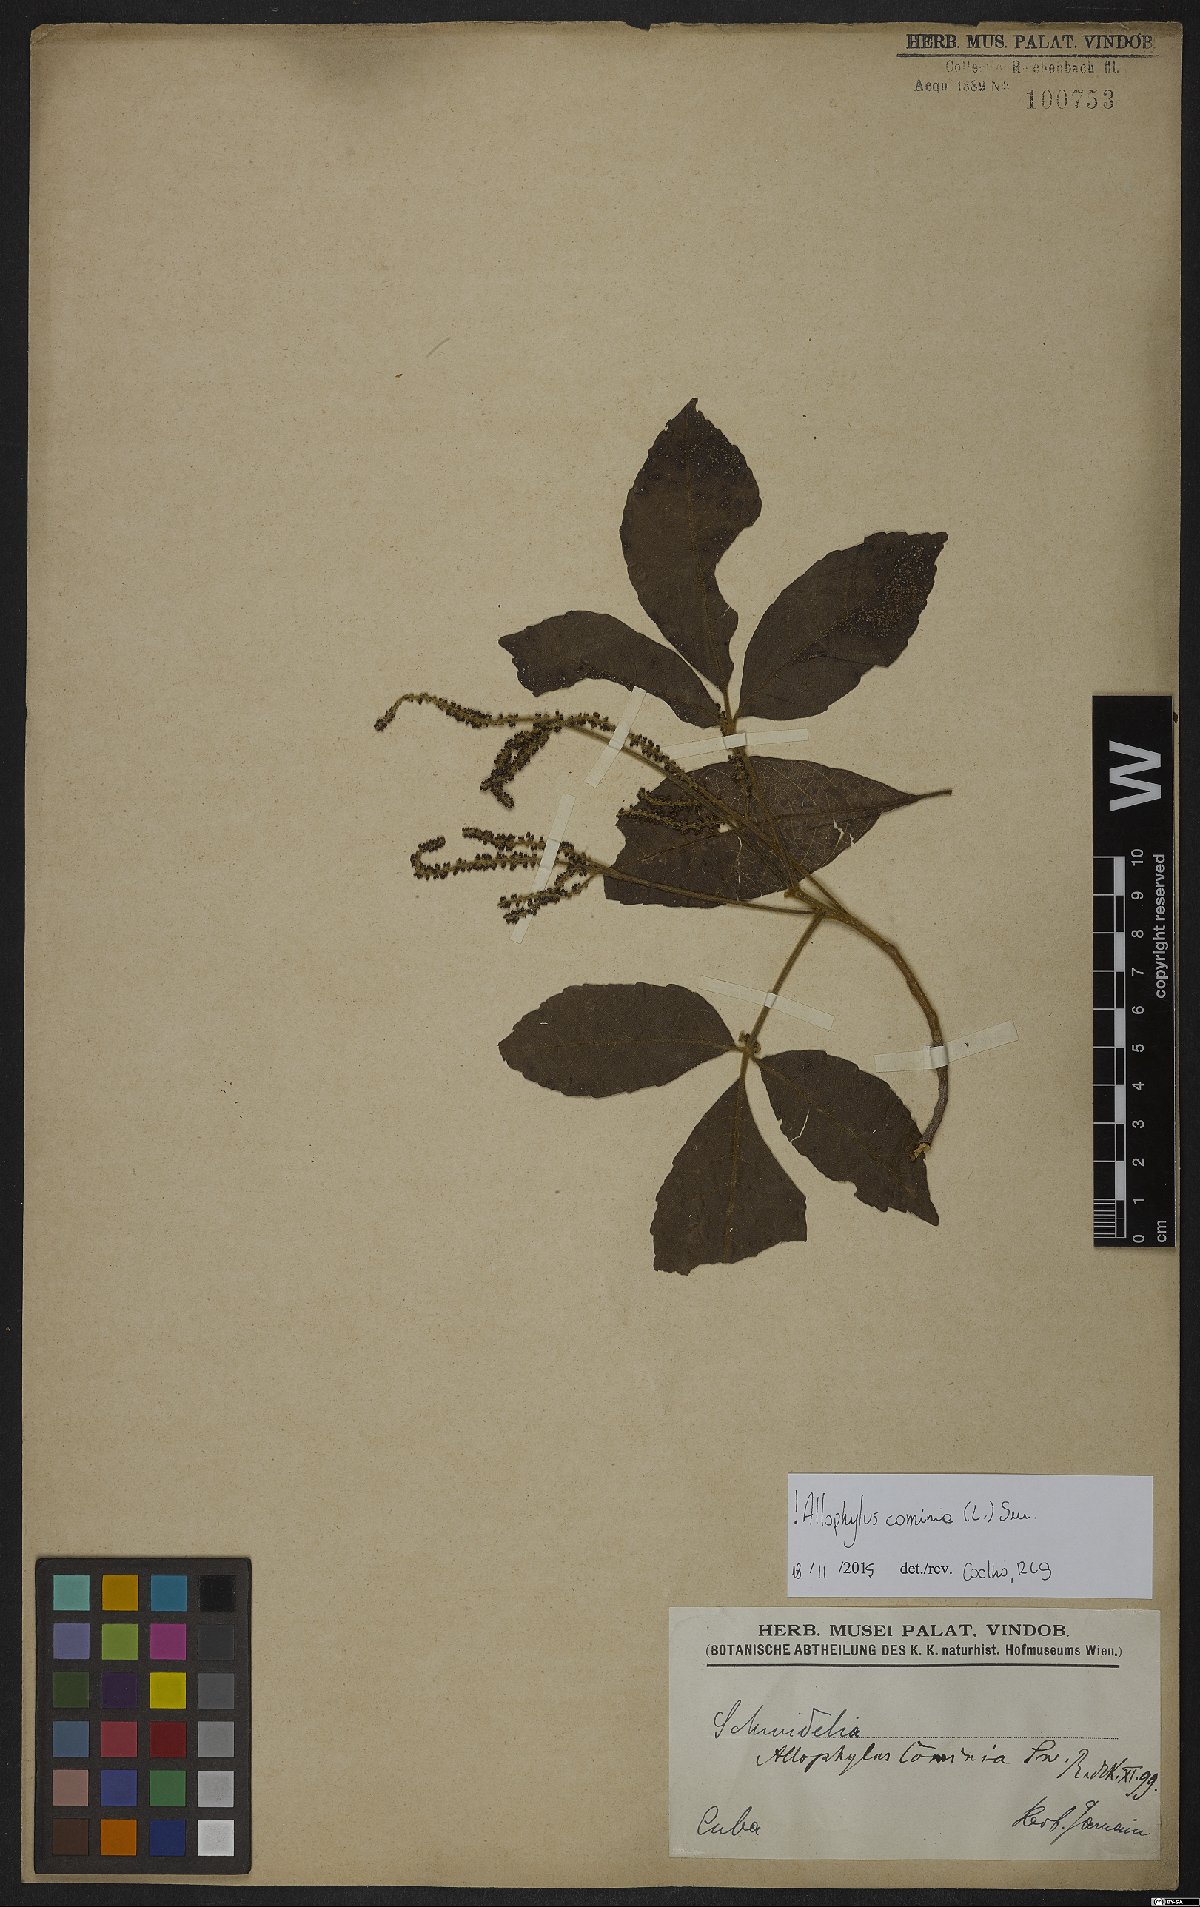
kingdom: Plantae
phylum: Tracheophyta
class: Magnoliopsida
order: Sapindales
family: Sapindaceae
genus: Allophylus
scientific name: Allophylus cominia
